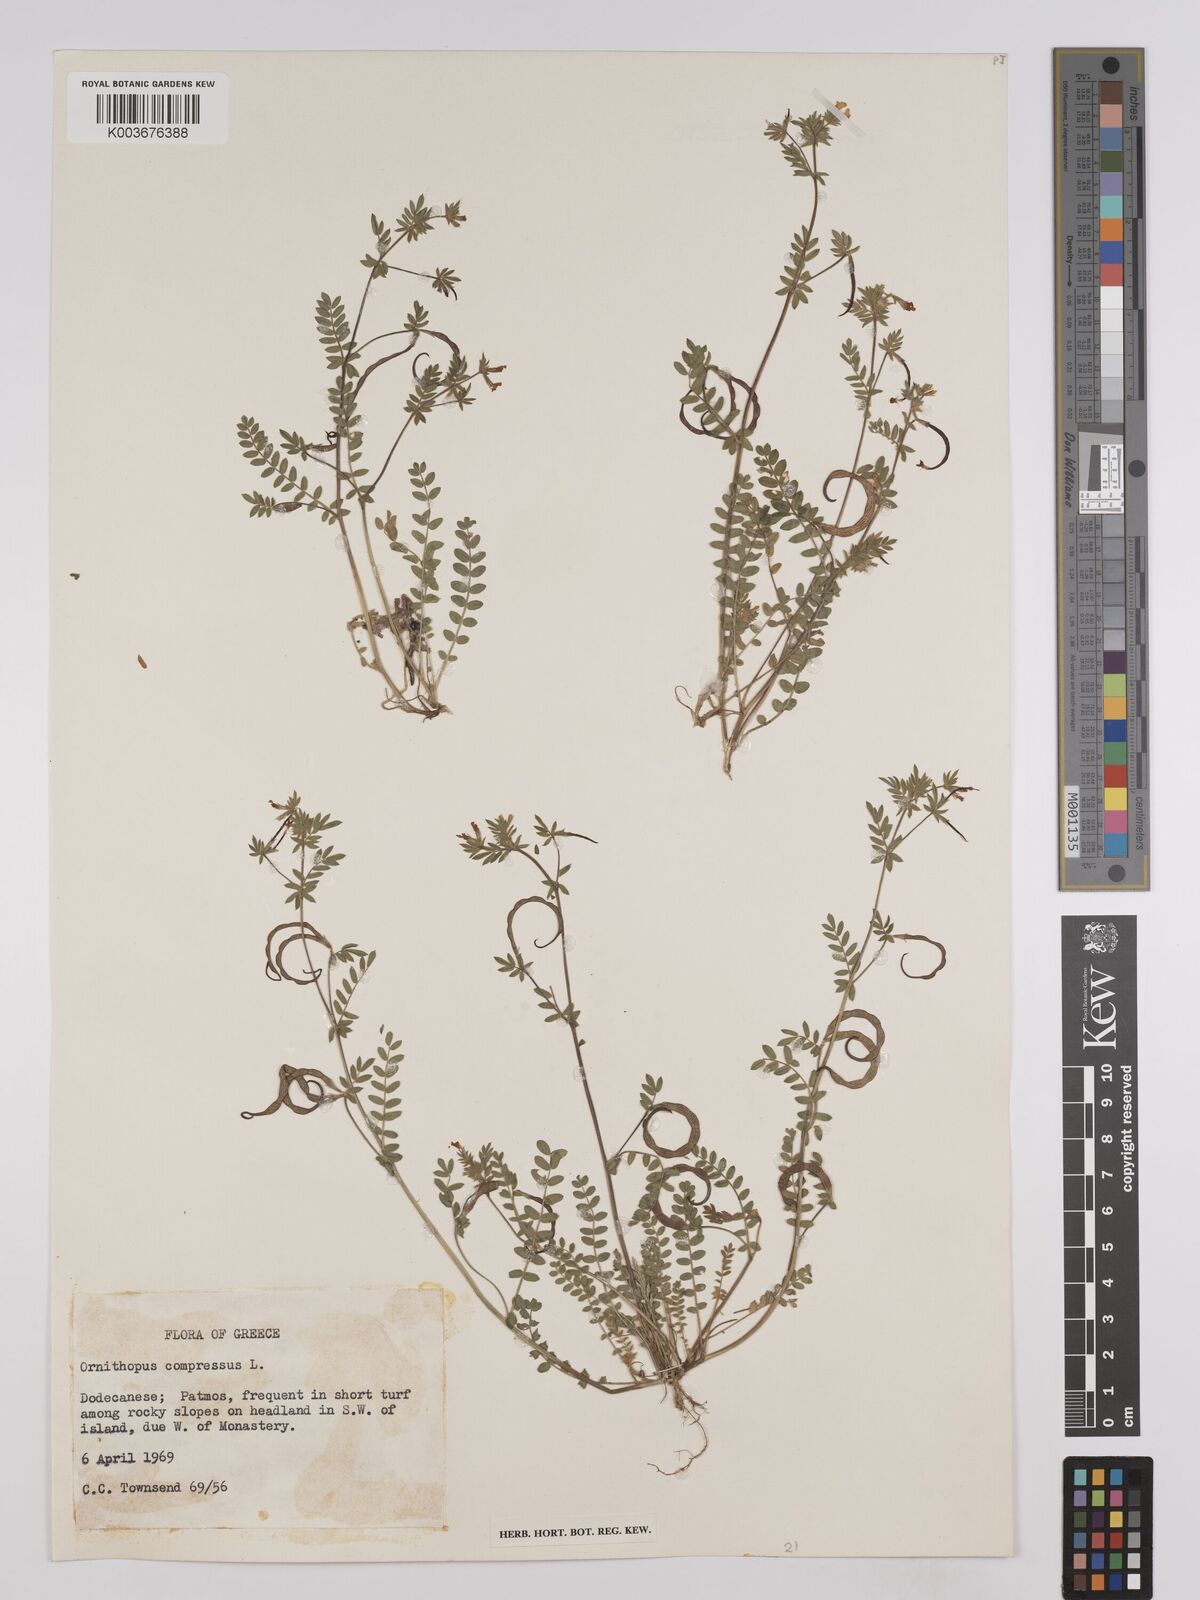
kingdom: Plantae
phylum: Tracheophyta
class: Magnoliopsida
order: Fabales
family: Fabaceae
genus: Ornithopus
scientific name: Ornithopus compressus
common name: Yellow serradella
